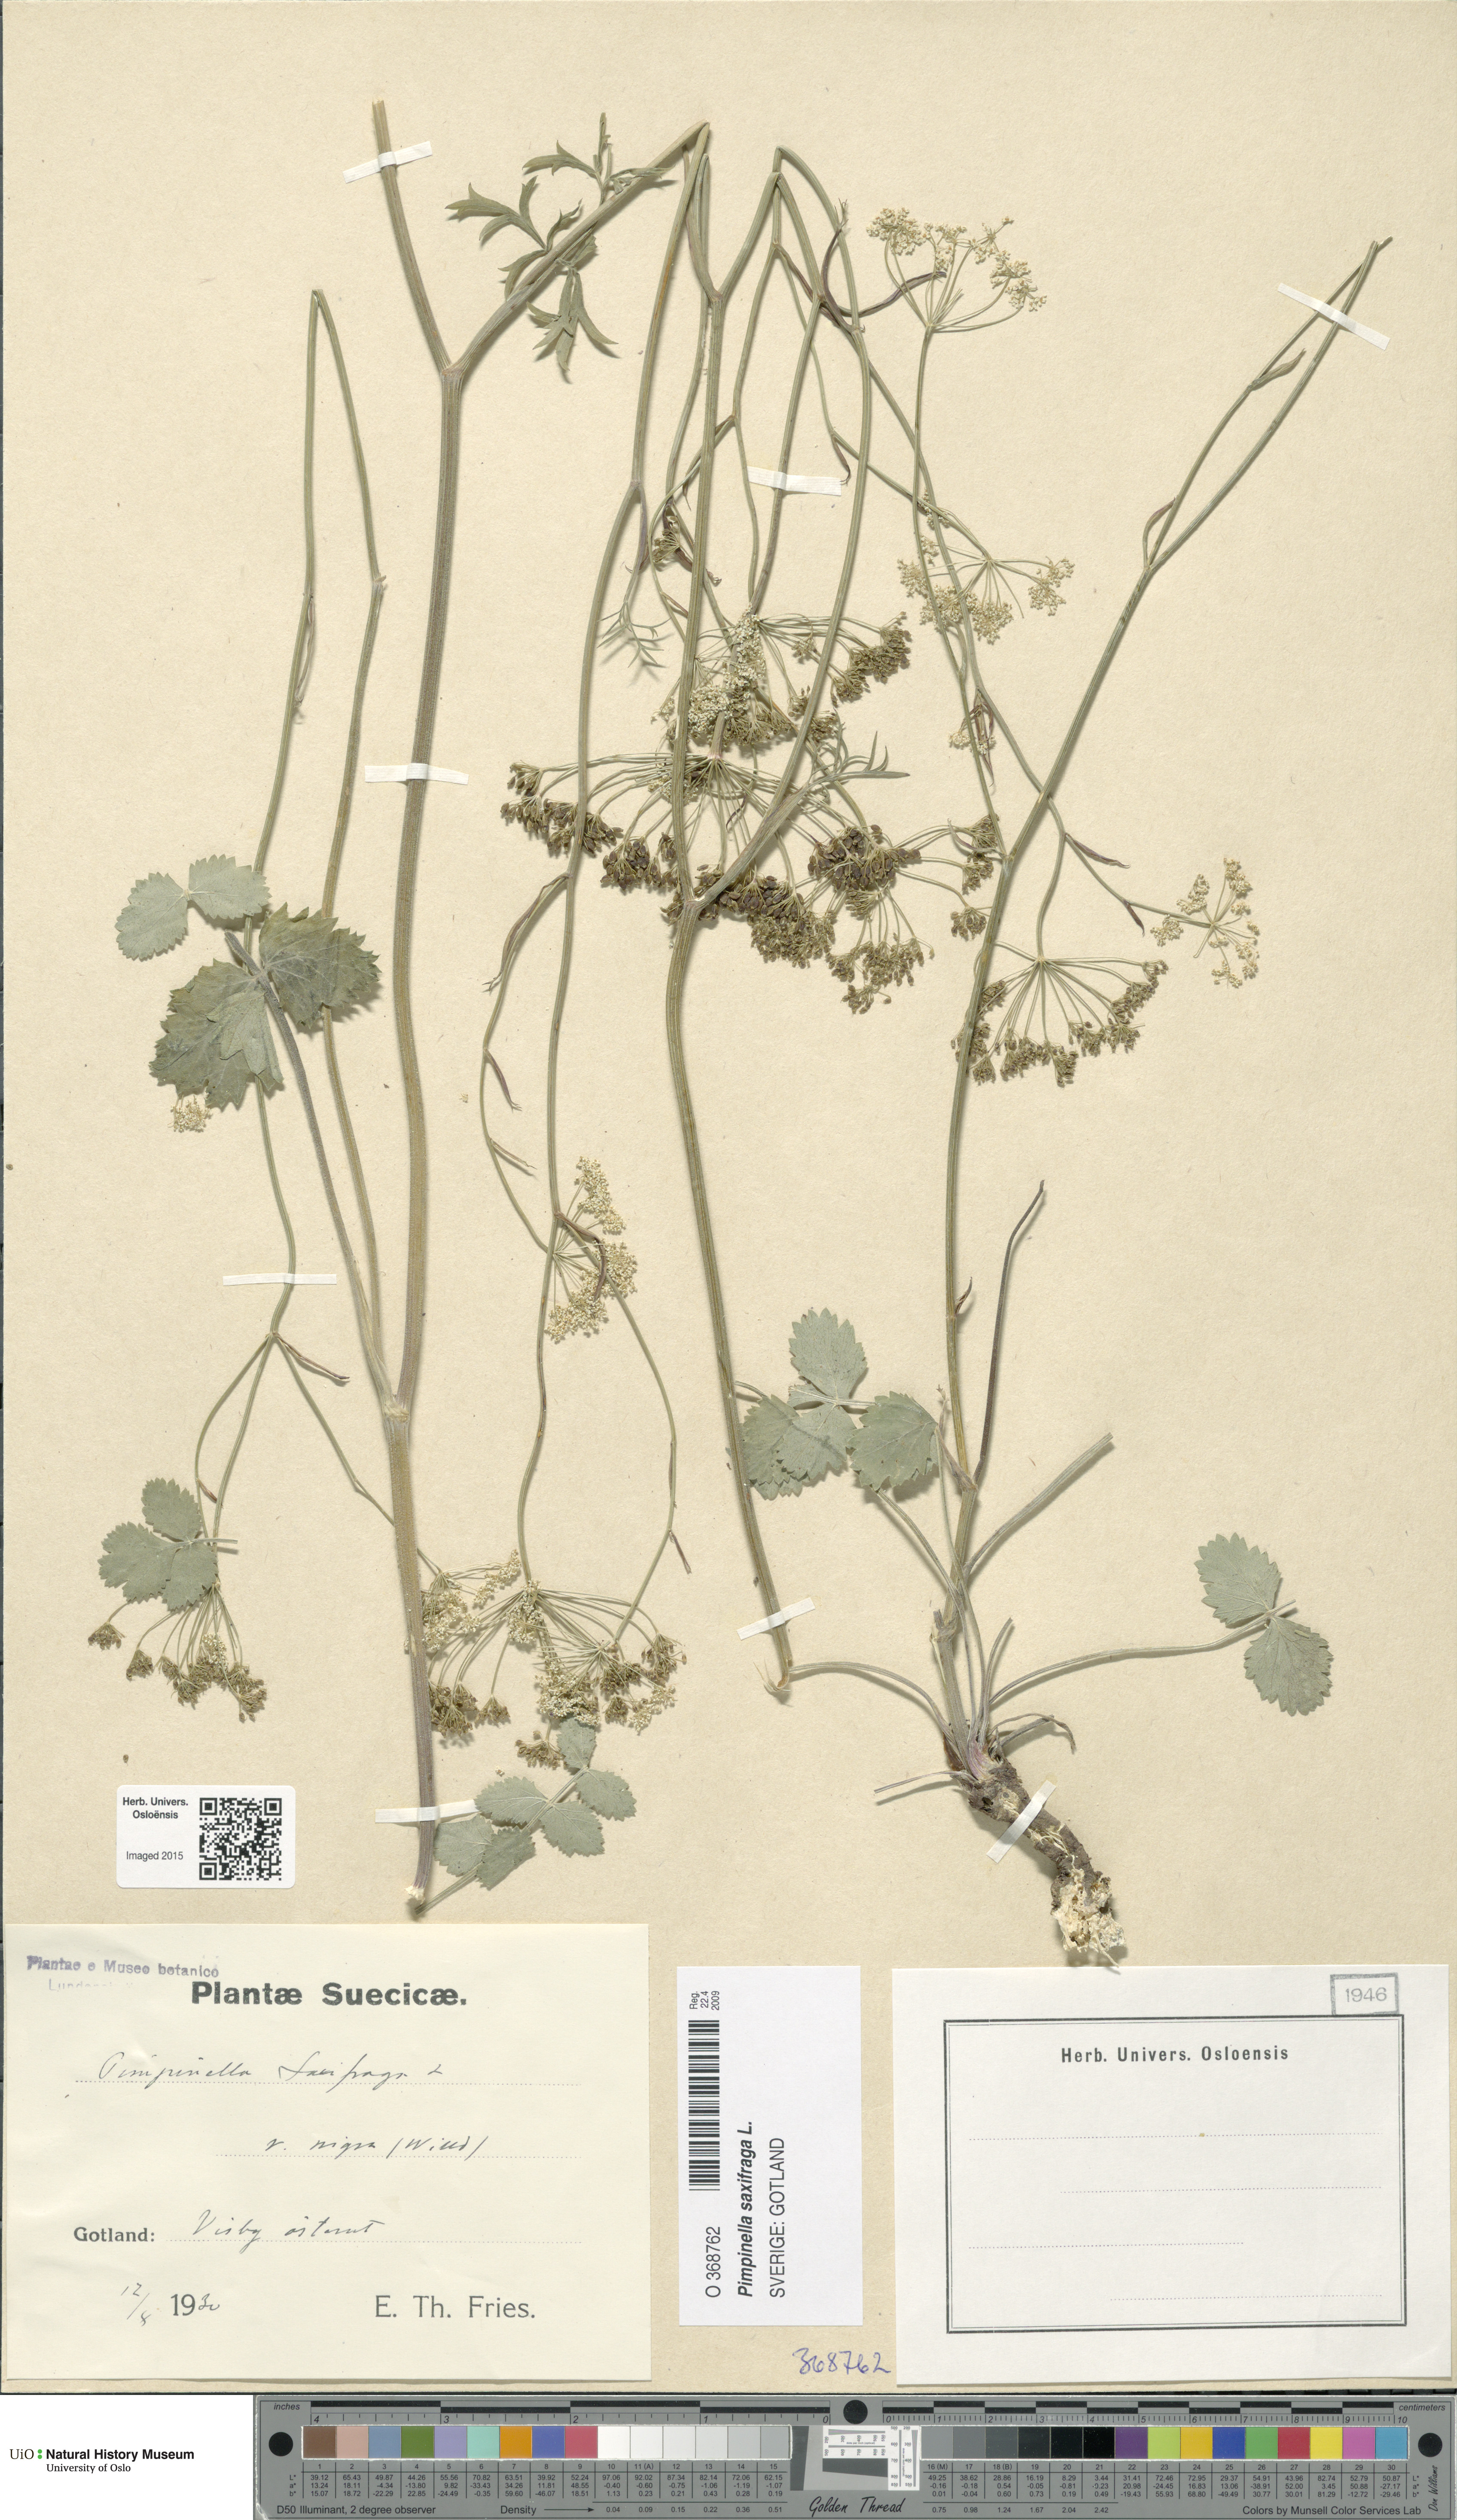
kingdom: Plantae
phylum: Tracheophyta
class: Magnoliopsida
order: Apiales
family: Apiaceae
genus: Pimpinella
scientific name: Pimpinella nigra
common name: Black pimpinella
